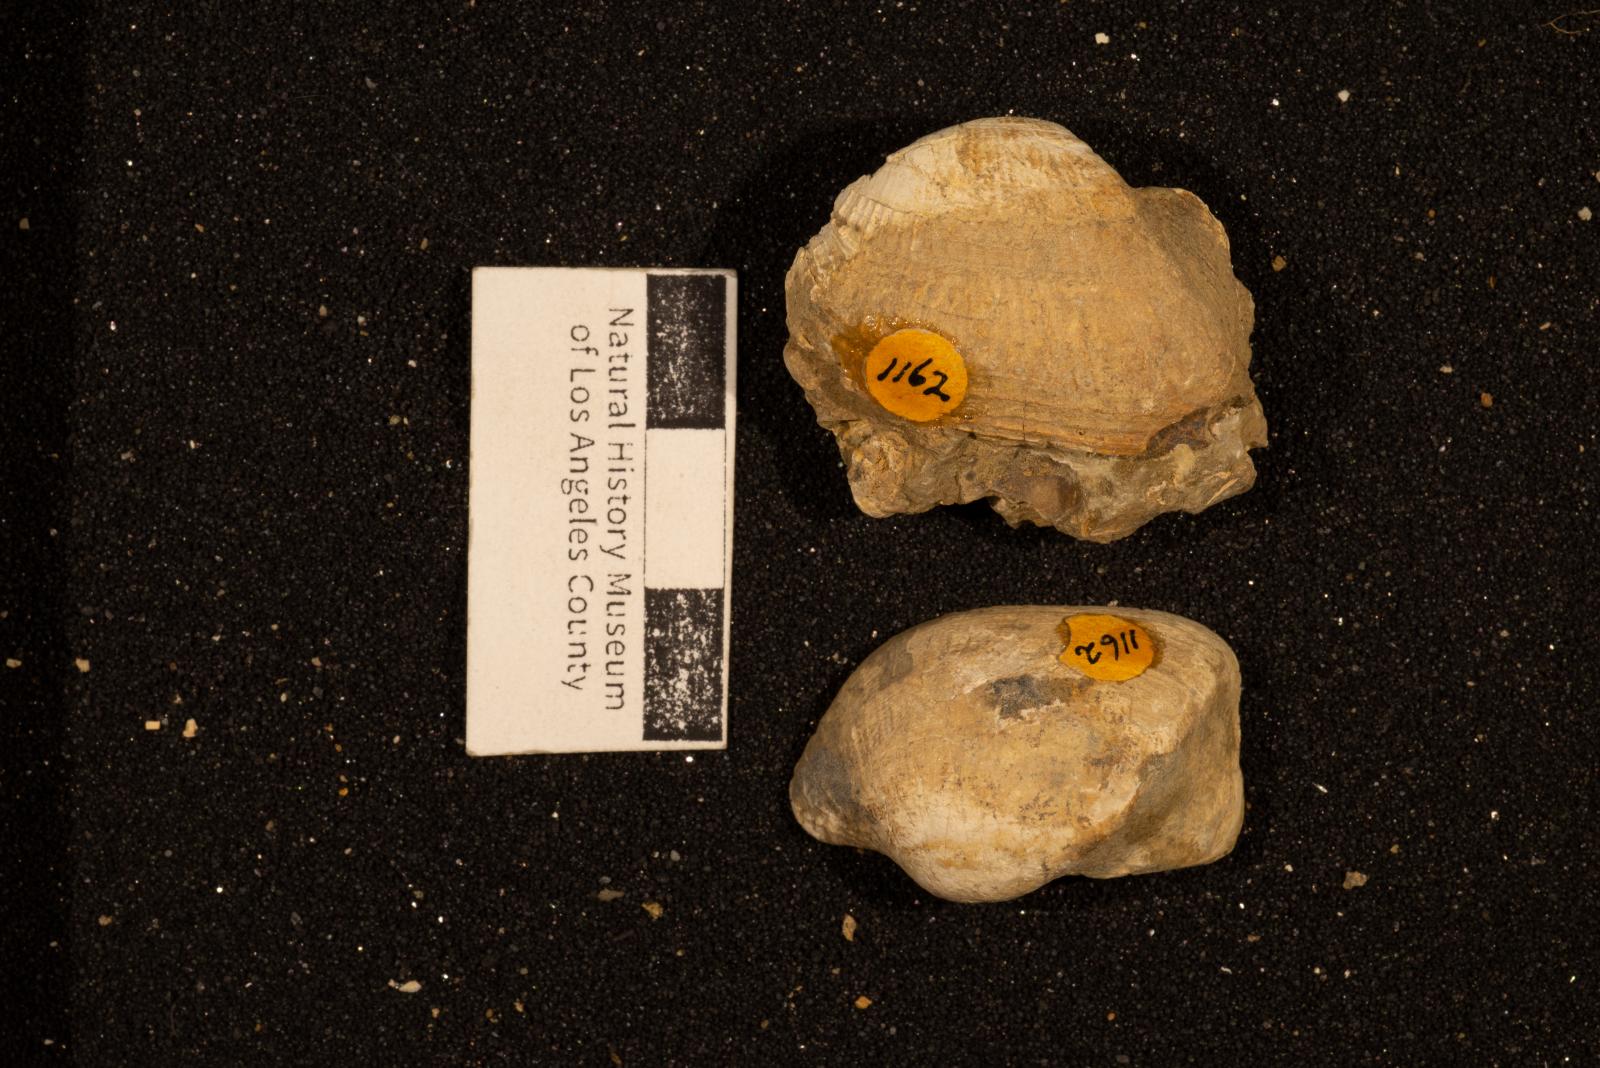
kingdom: Animalia
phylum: Mollusca
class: Bivalvia
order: Arcida
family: Arcidae
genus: Indogrammatodon
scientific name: Indogrammatodon
